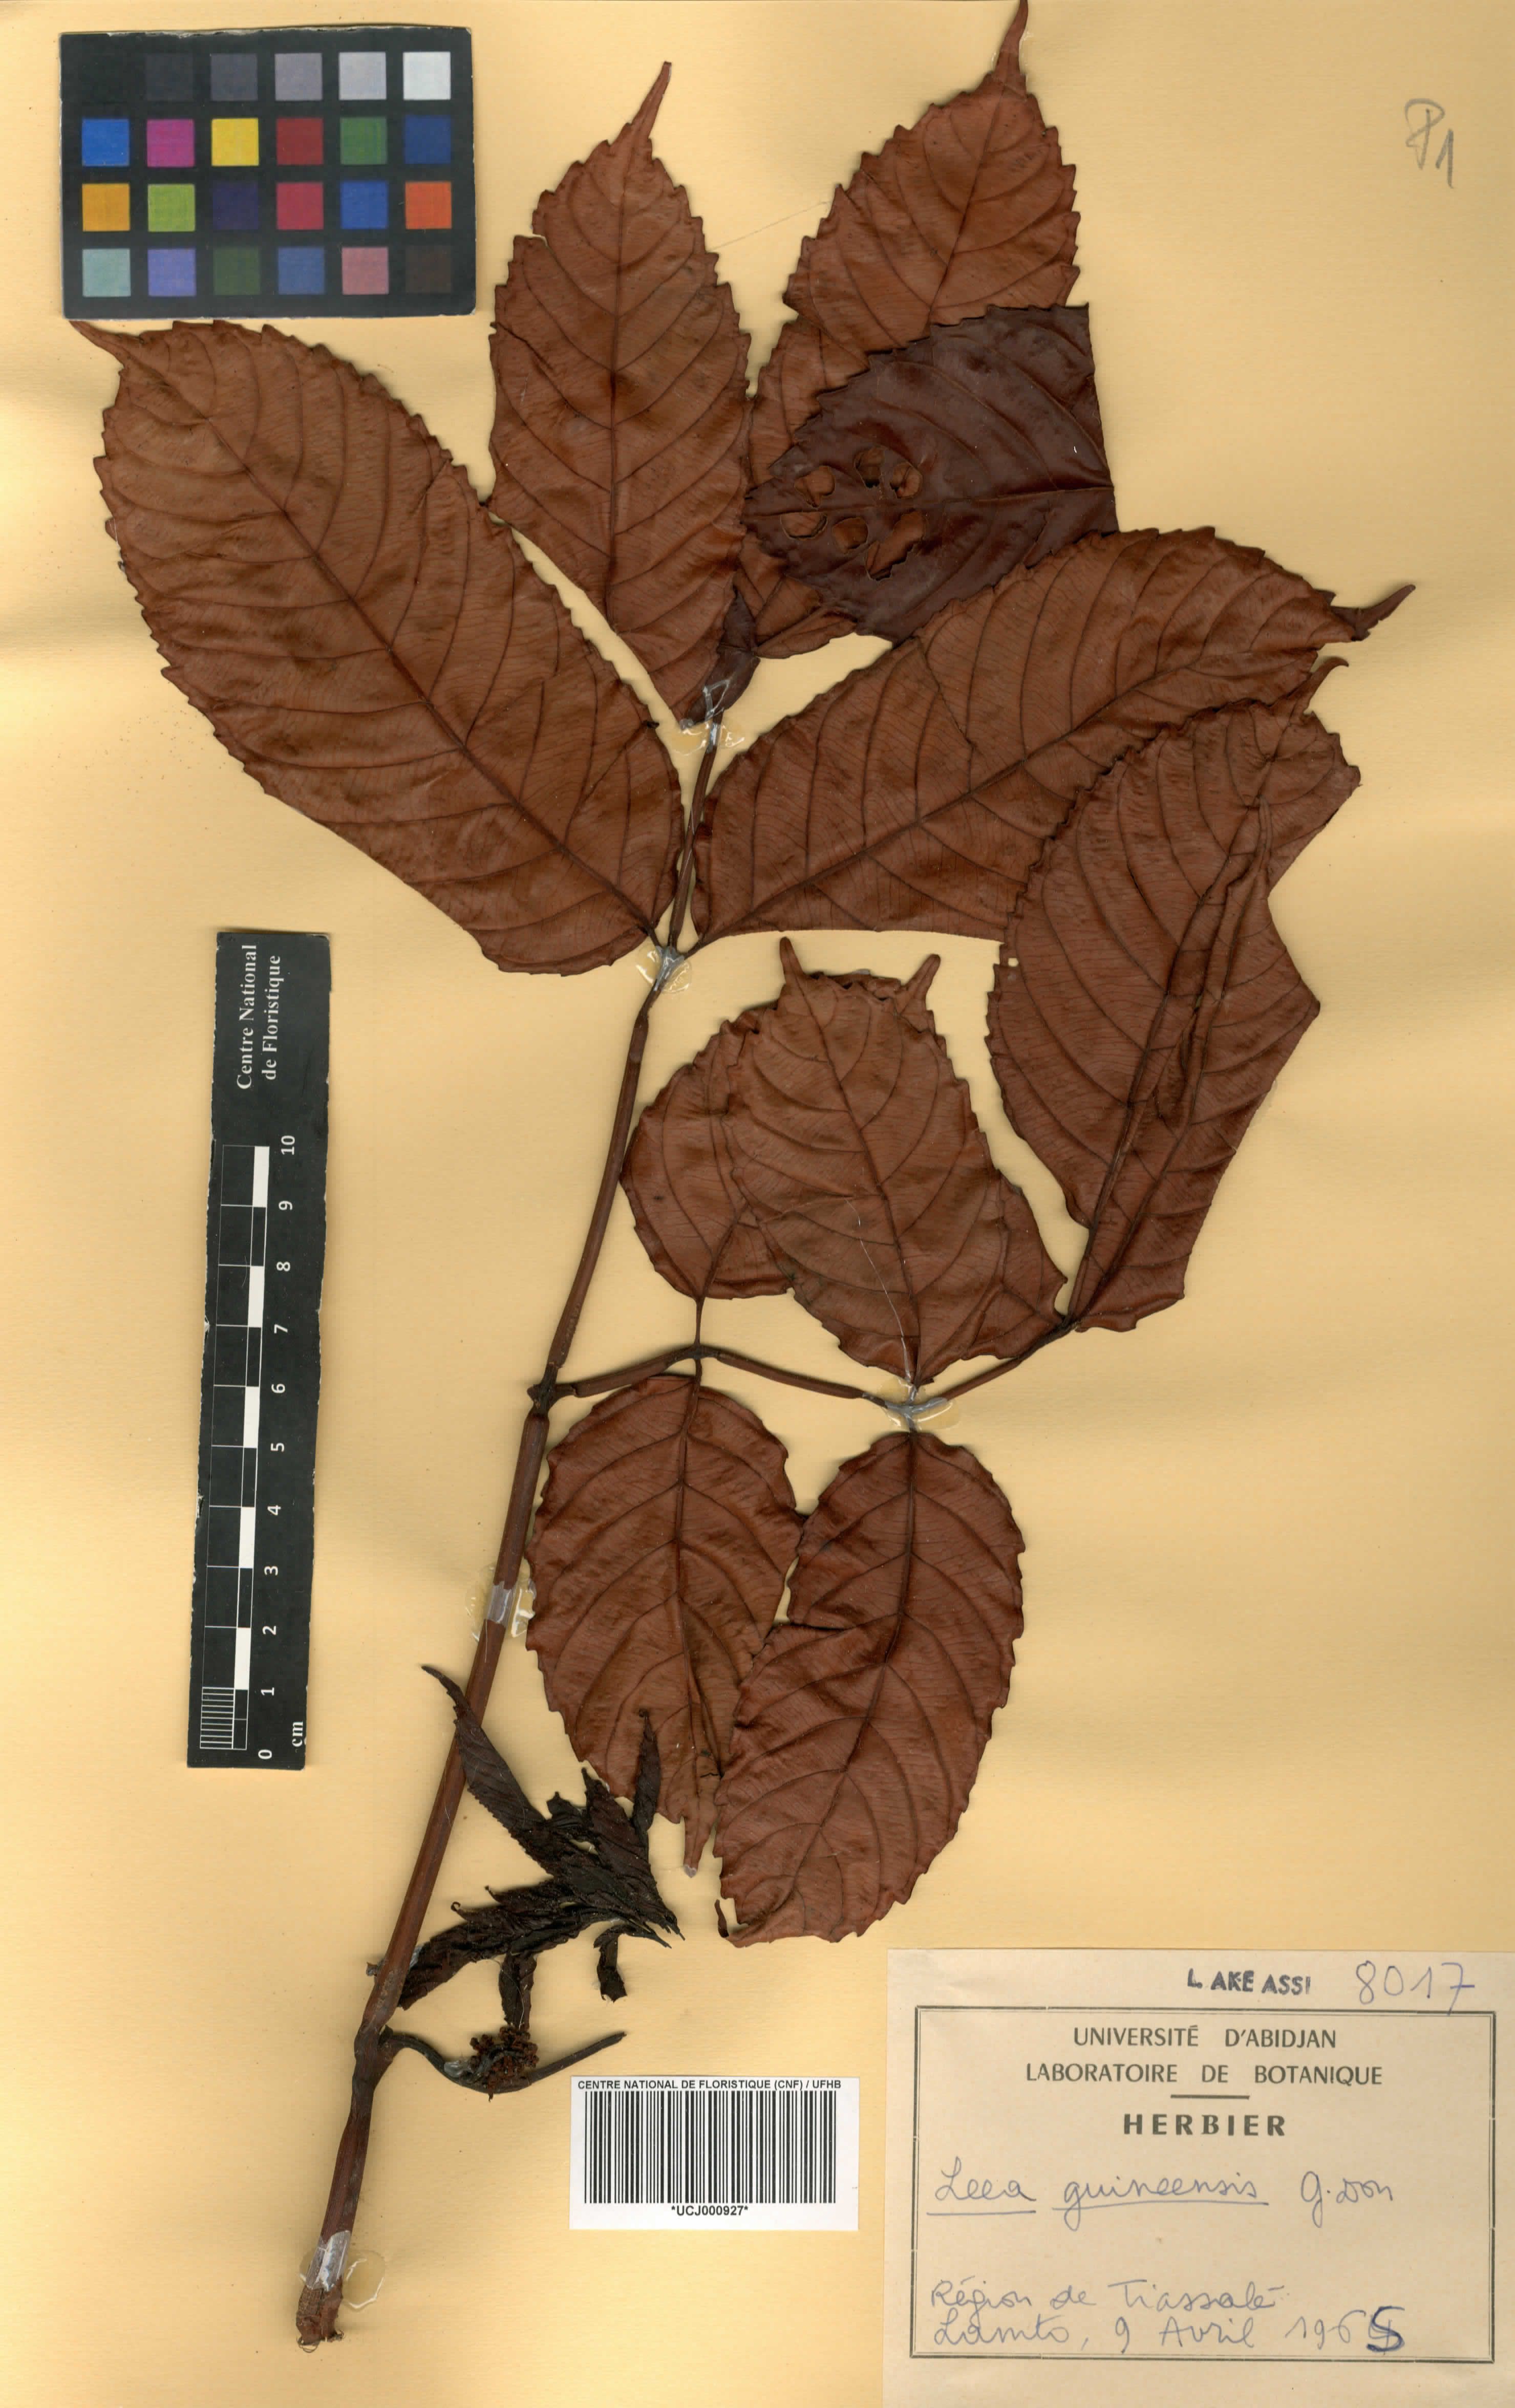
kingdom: Plantae
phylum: Tracheophyta
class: Magnoliopsida
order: Vitales
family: Vitaceae
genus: Leea
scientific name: Leea guineensis
